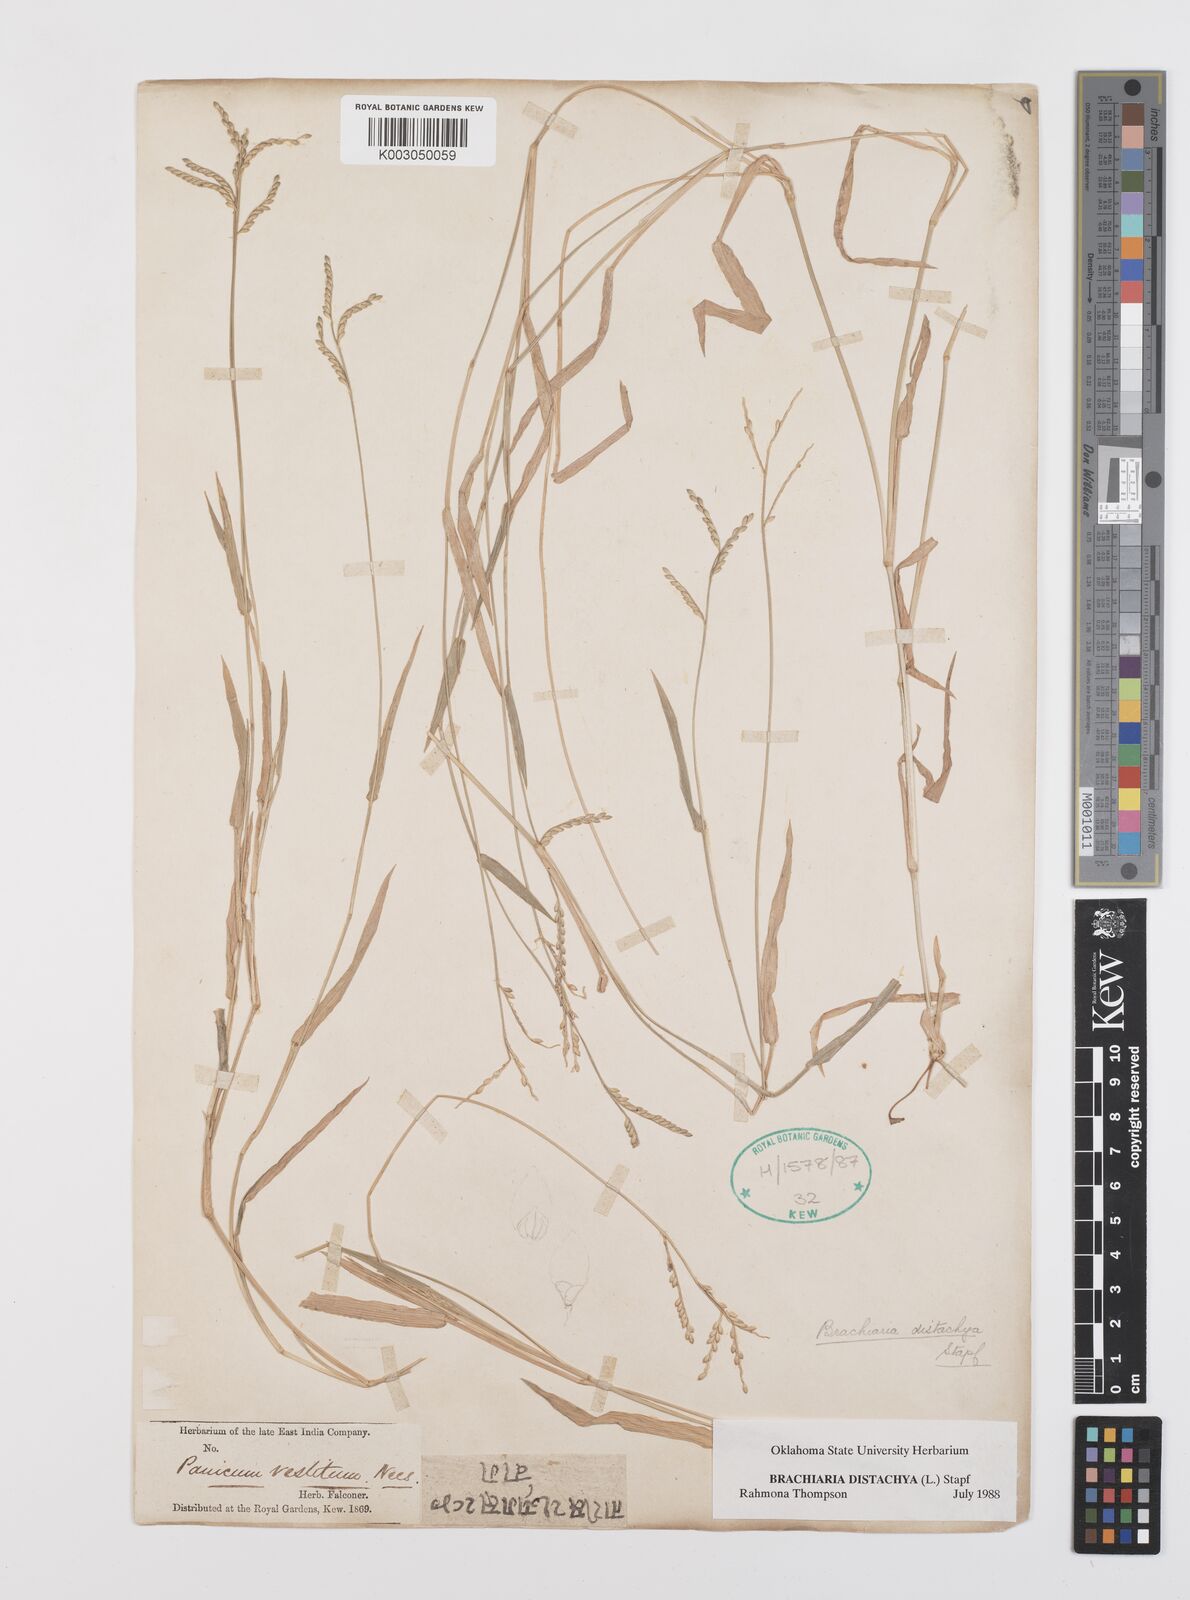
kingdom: Plantae
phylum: Tracheophyta
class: Liliopsida
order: Poales
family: Poaceae
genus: Urochloa
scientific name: Urochloa distachyos
